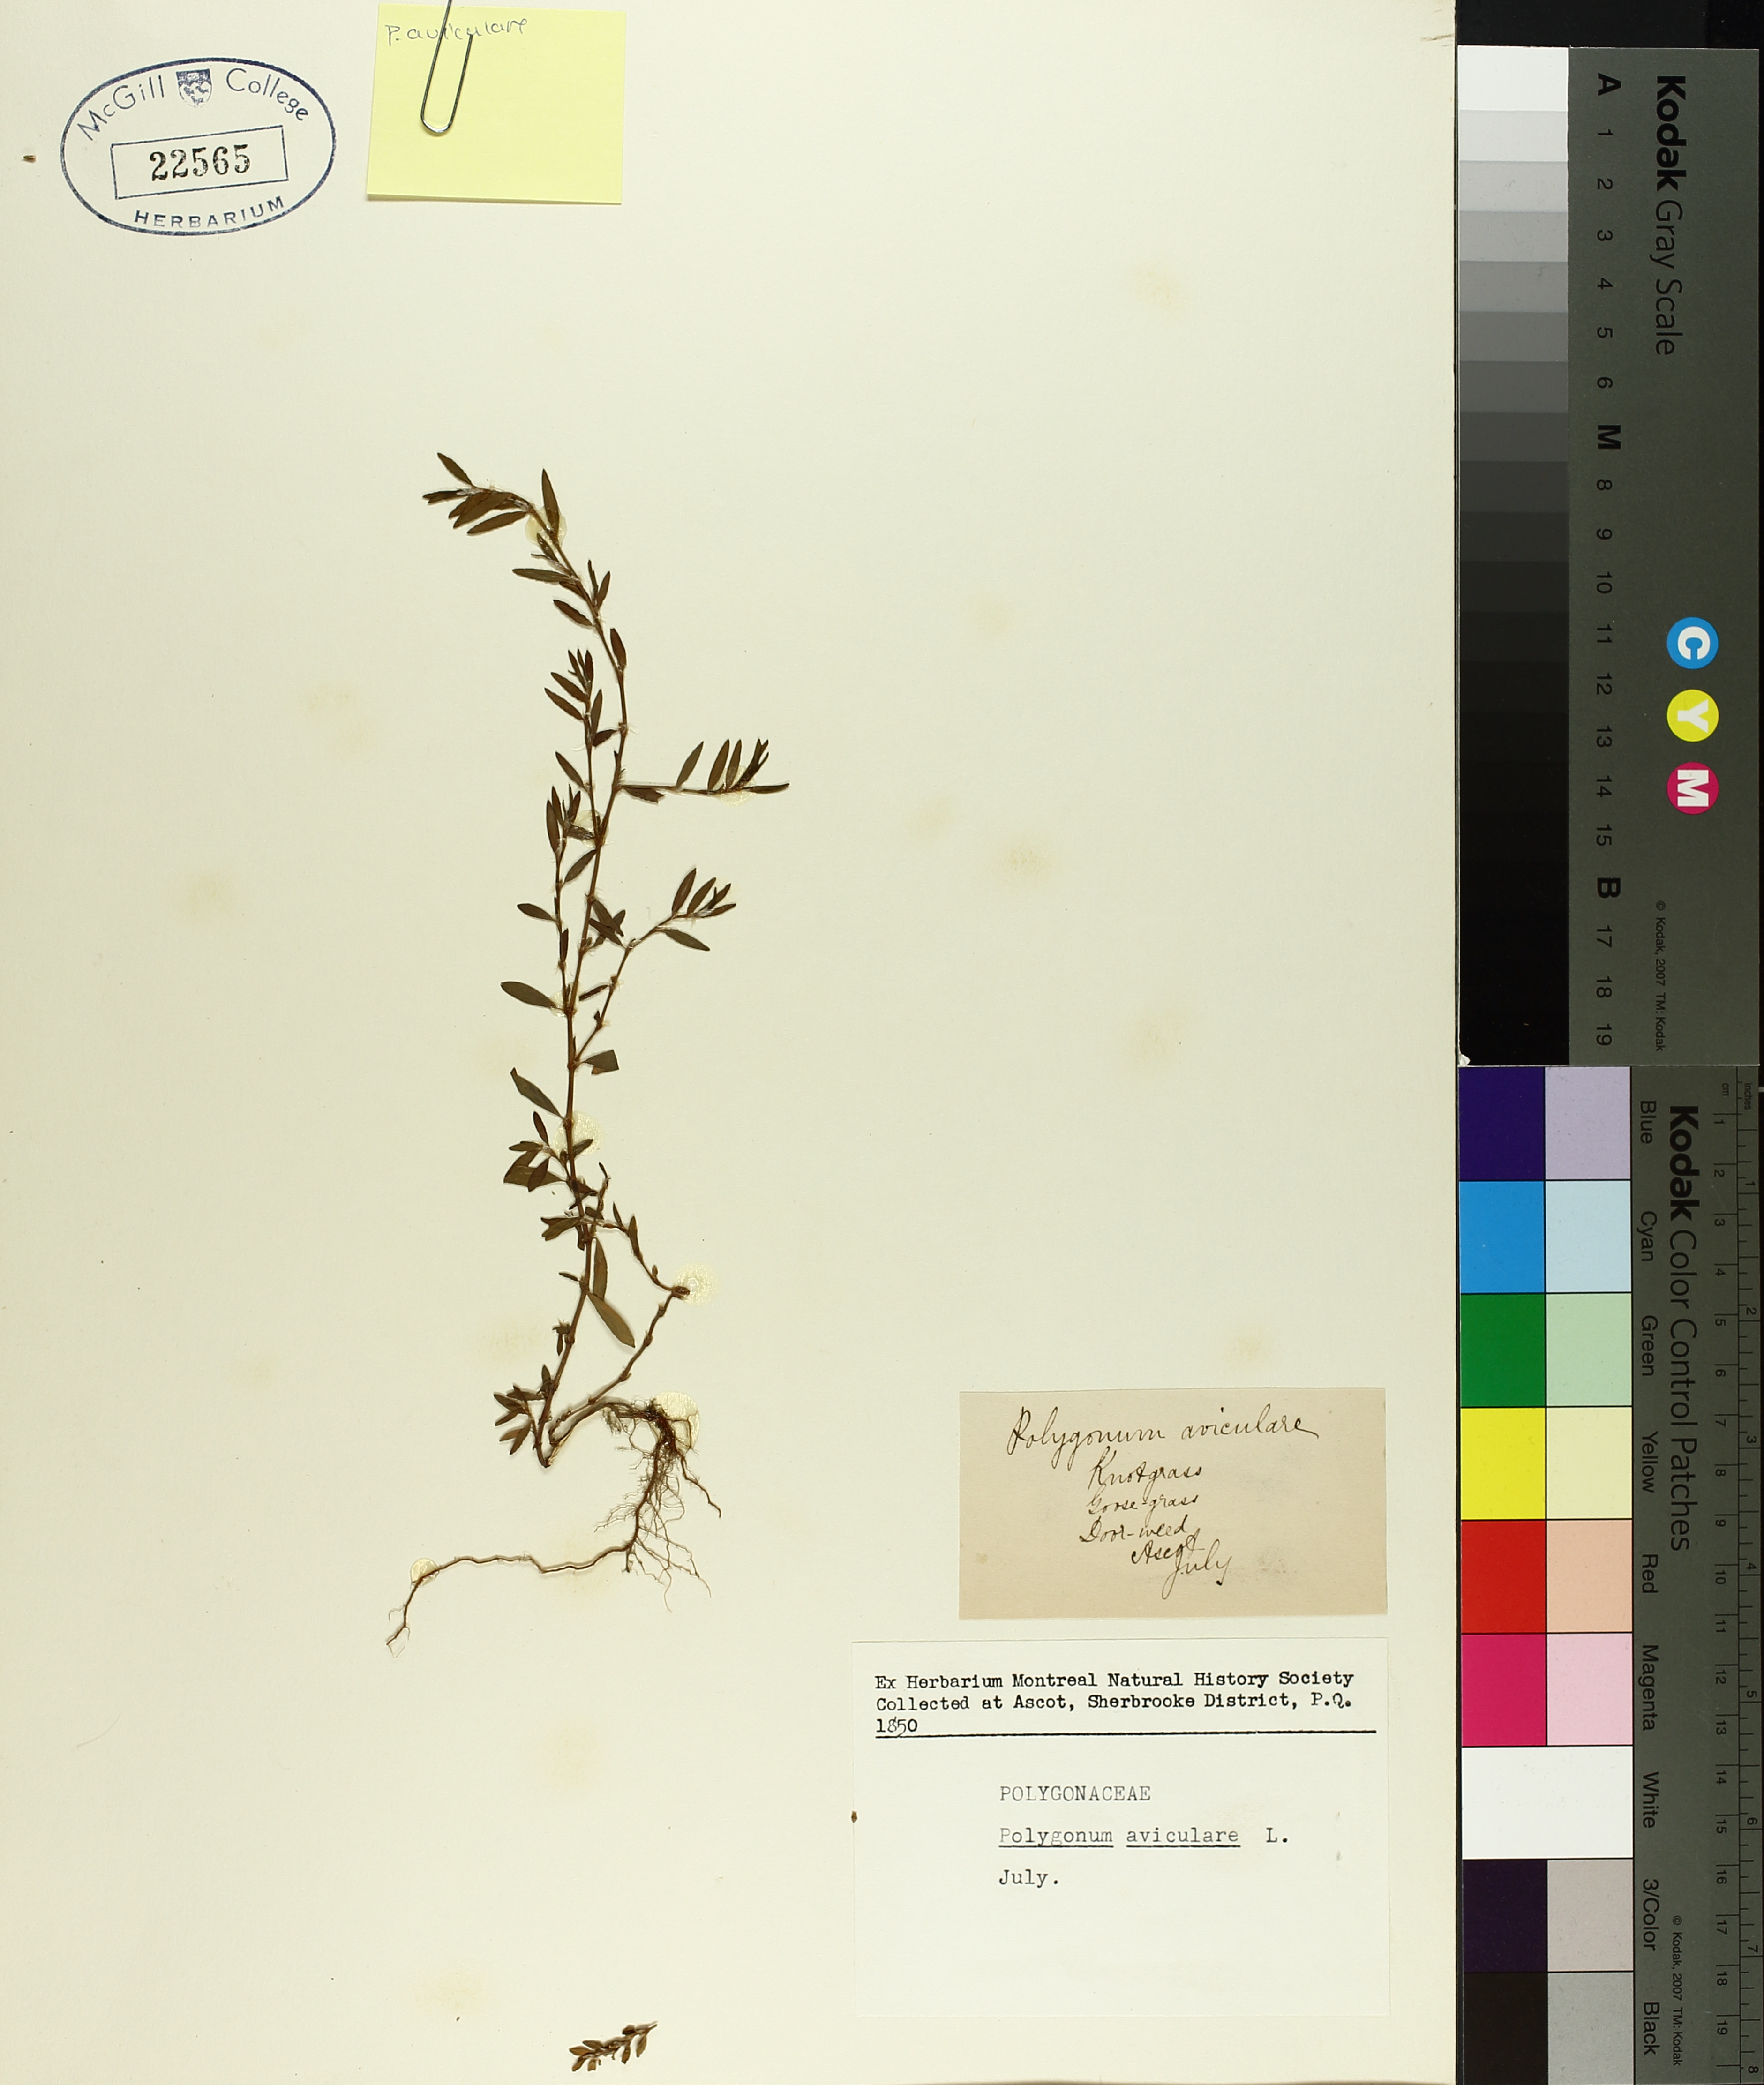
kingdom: Plantae
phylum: Tracheophyta
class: Magnoliopsida
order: Caryophyllales
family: Polygonaceae
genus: Polygonum
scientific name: Polygonum aviculare
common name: Prostrate knotweed
